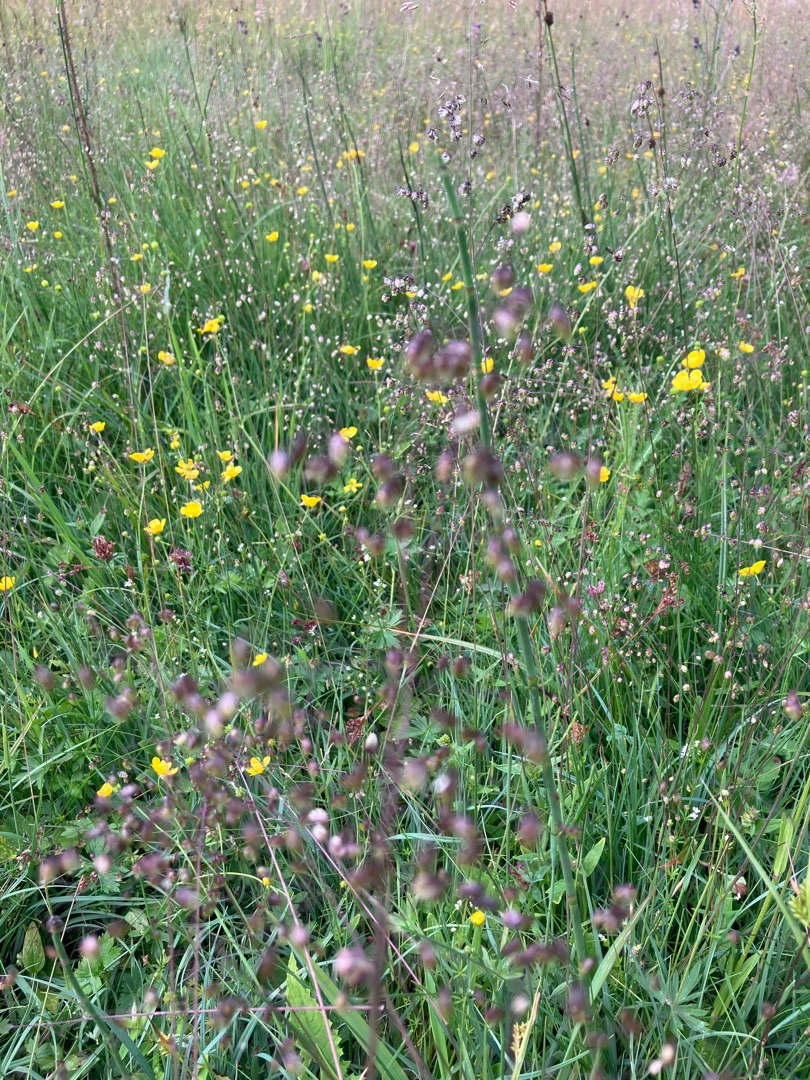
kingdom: Plantae
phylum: Tracheophyta
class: Liliopsida
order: Poales
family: Poaceae
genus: Briza
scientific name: Briza media
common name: Hjertegræs
